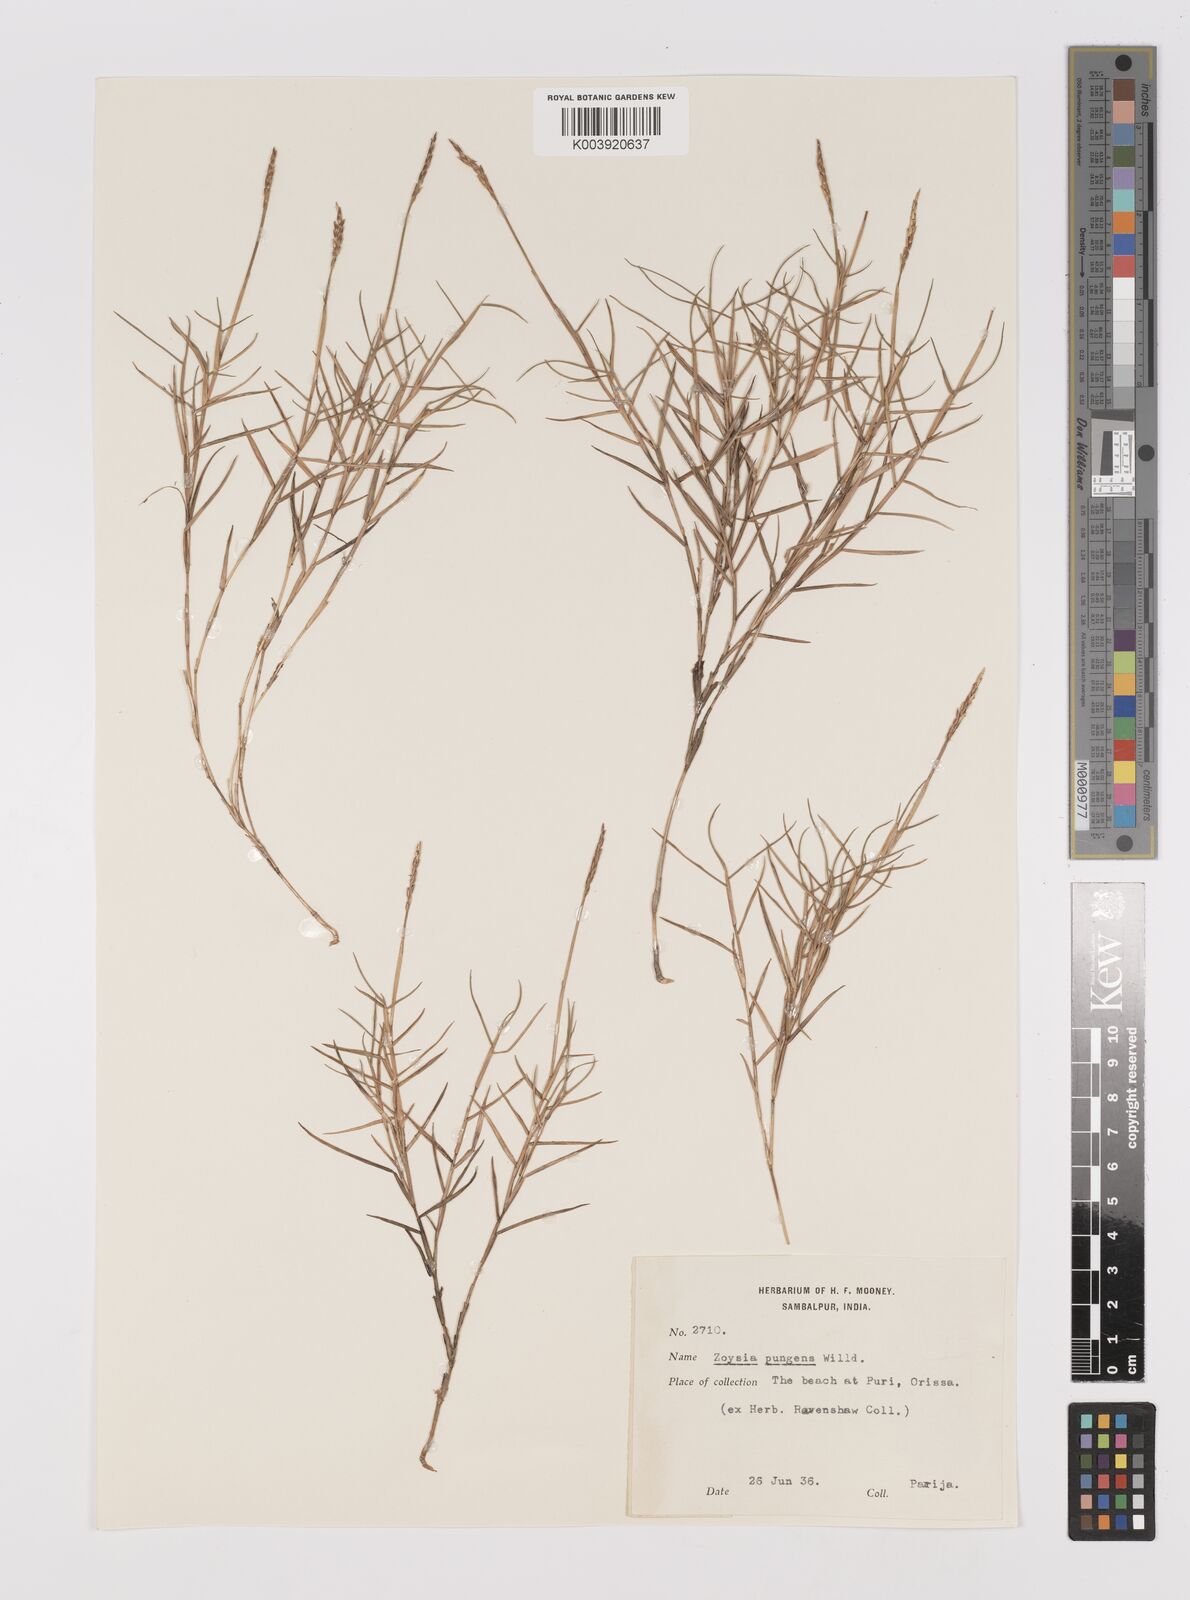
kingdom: Plantae
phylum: Tracheophyta
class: Liliopsida
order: Poales
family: Poaceae
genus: Zoysia
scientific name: Zoysia matrella
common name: Manila grass
